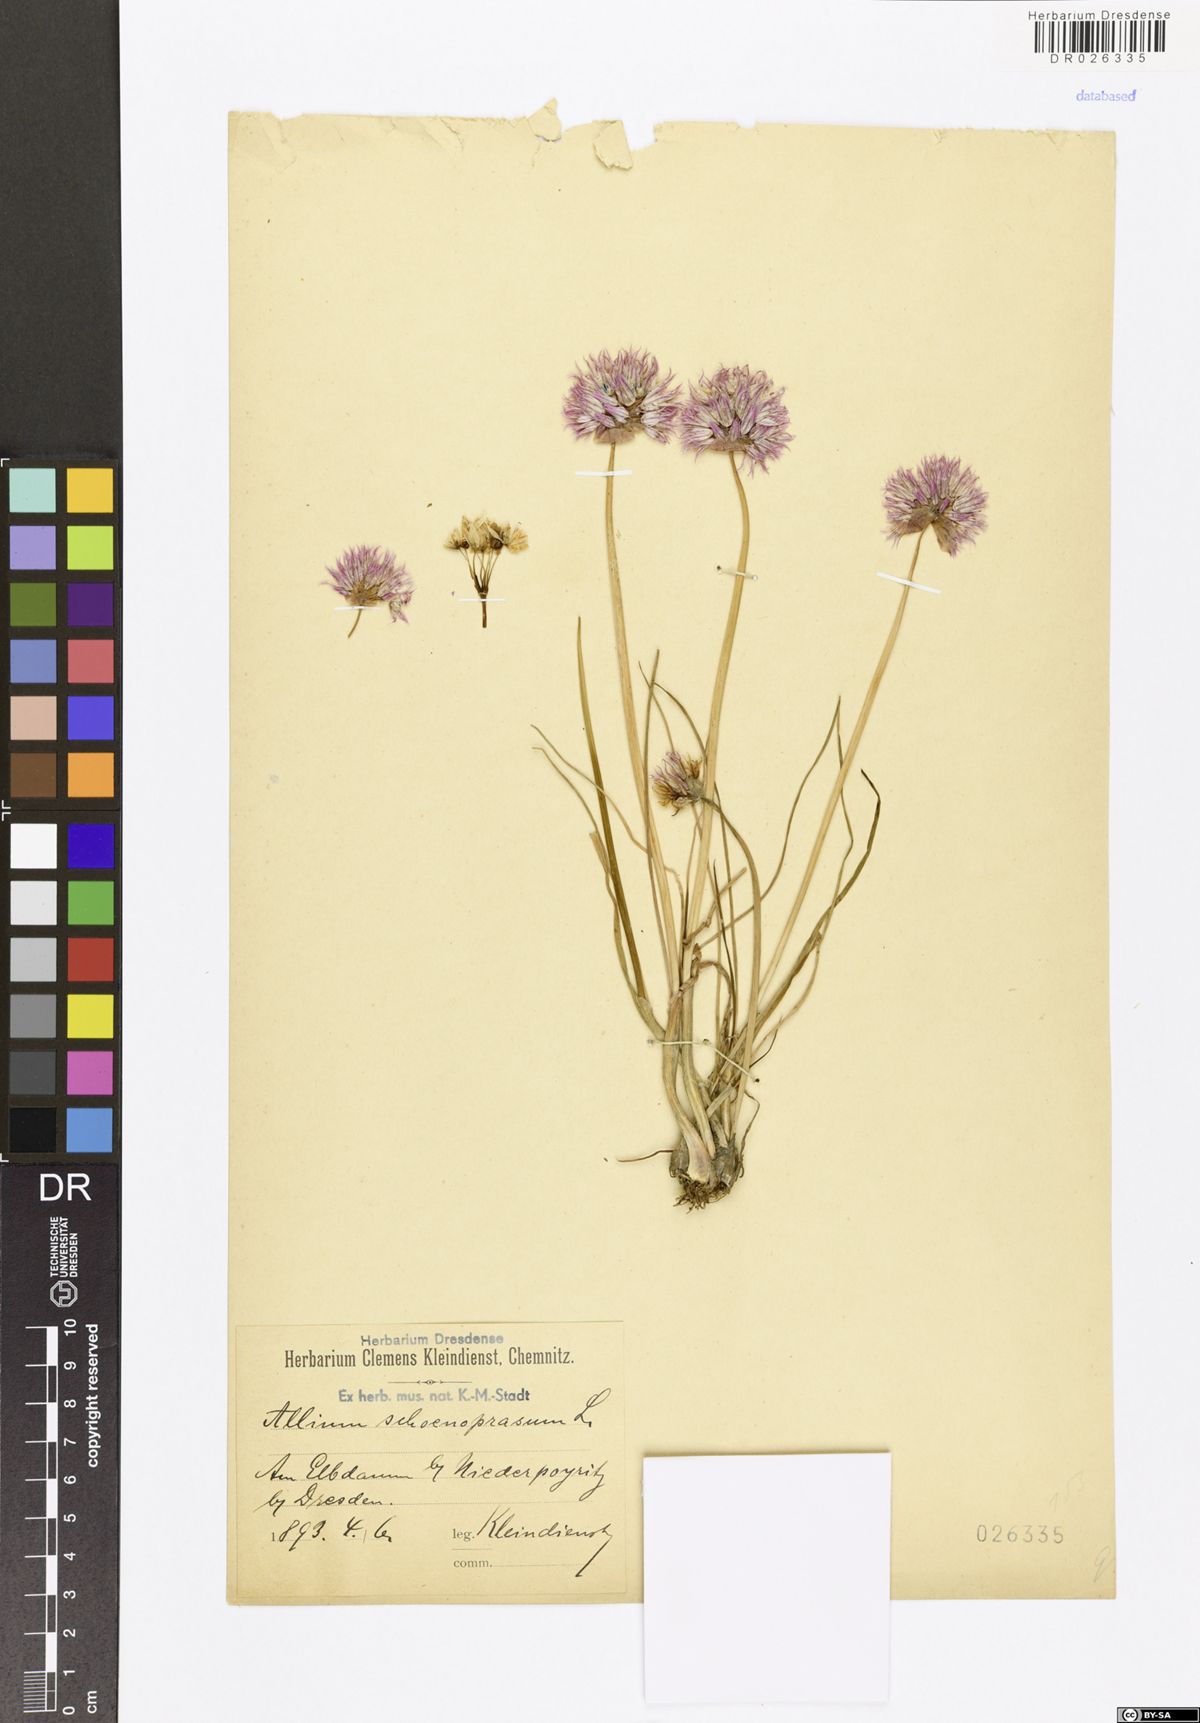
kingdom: Plantae
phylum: Tracheophyta
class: Liliopsida
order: Asparagales
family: Amaryllidaceae
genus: Allium
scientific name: Allium schoenoprasum
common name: Chives
